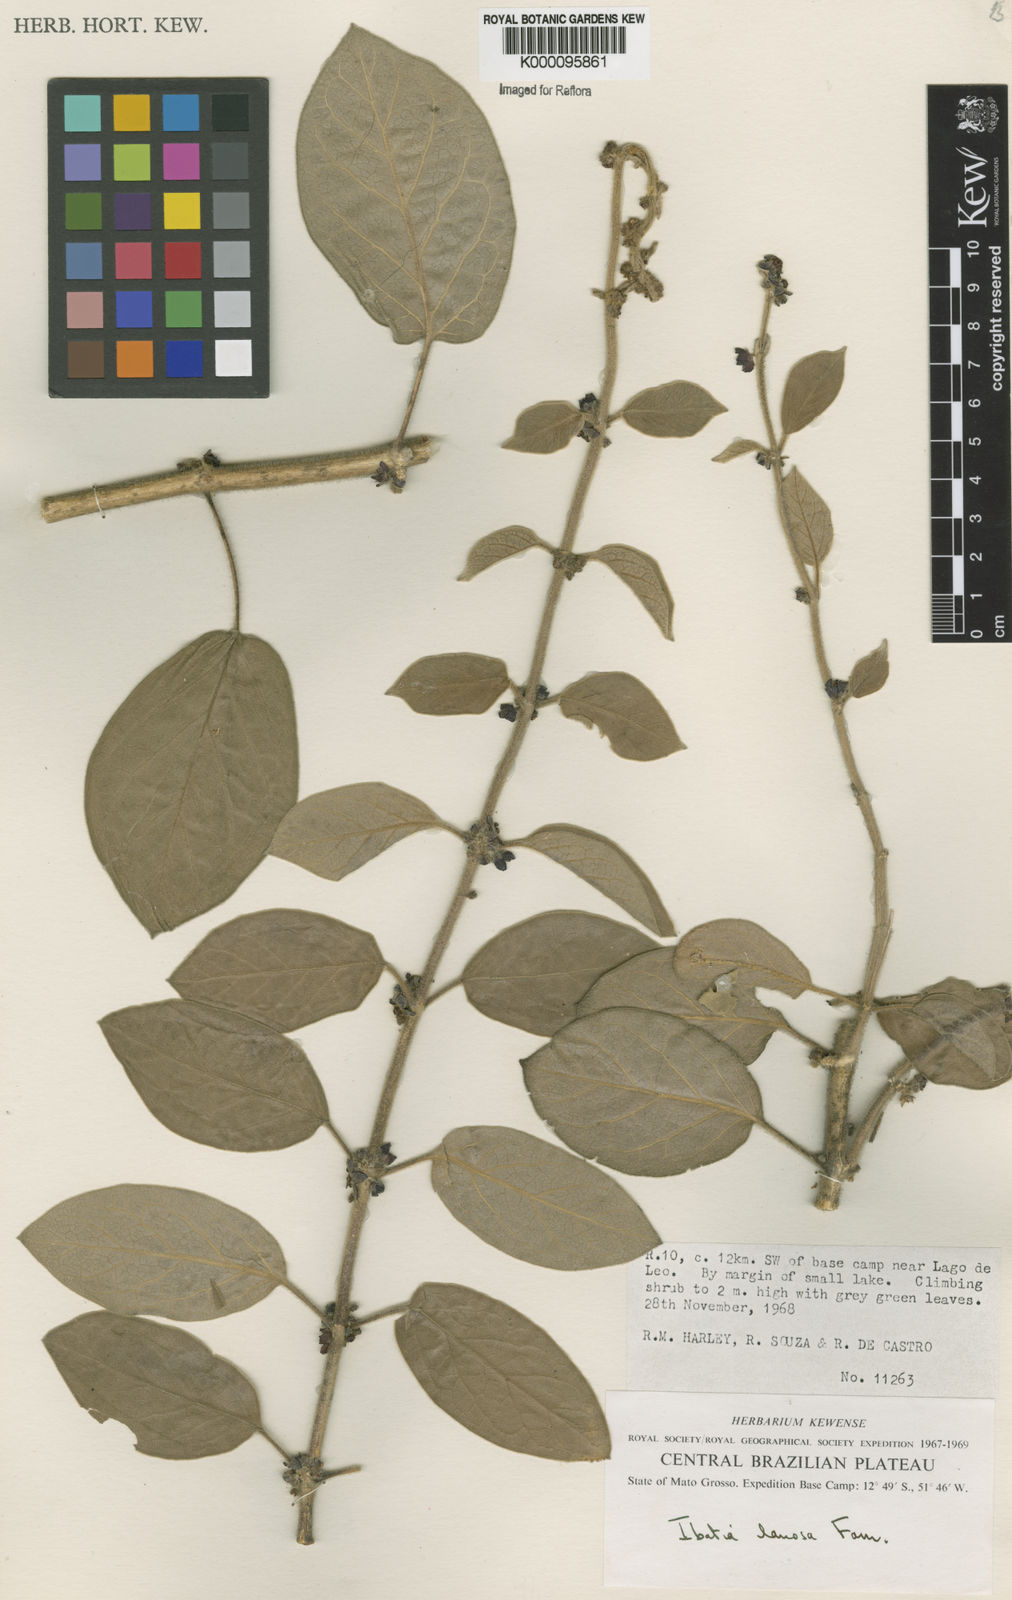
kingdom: Plantae
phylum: Tracheophyta
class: Magnoliopsida
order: Gentianales
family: Apocynaceae
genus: Ibatia
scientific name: Ibatia lanosa
